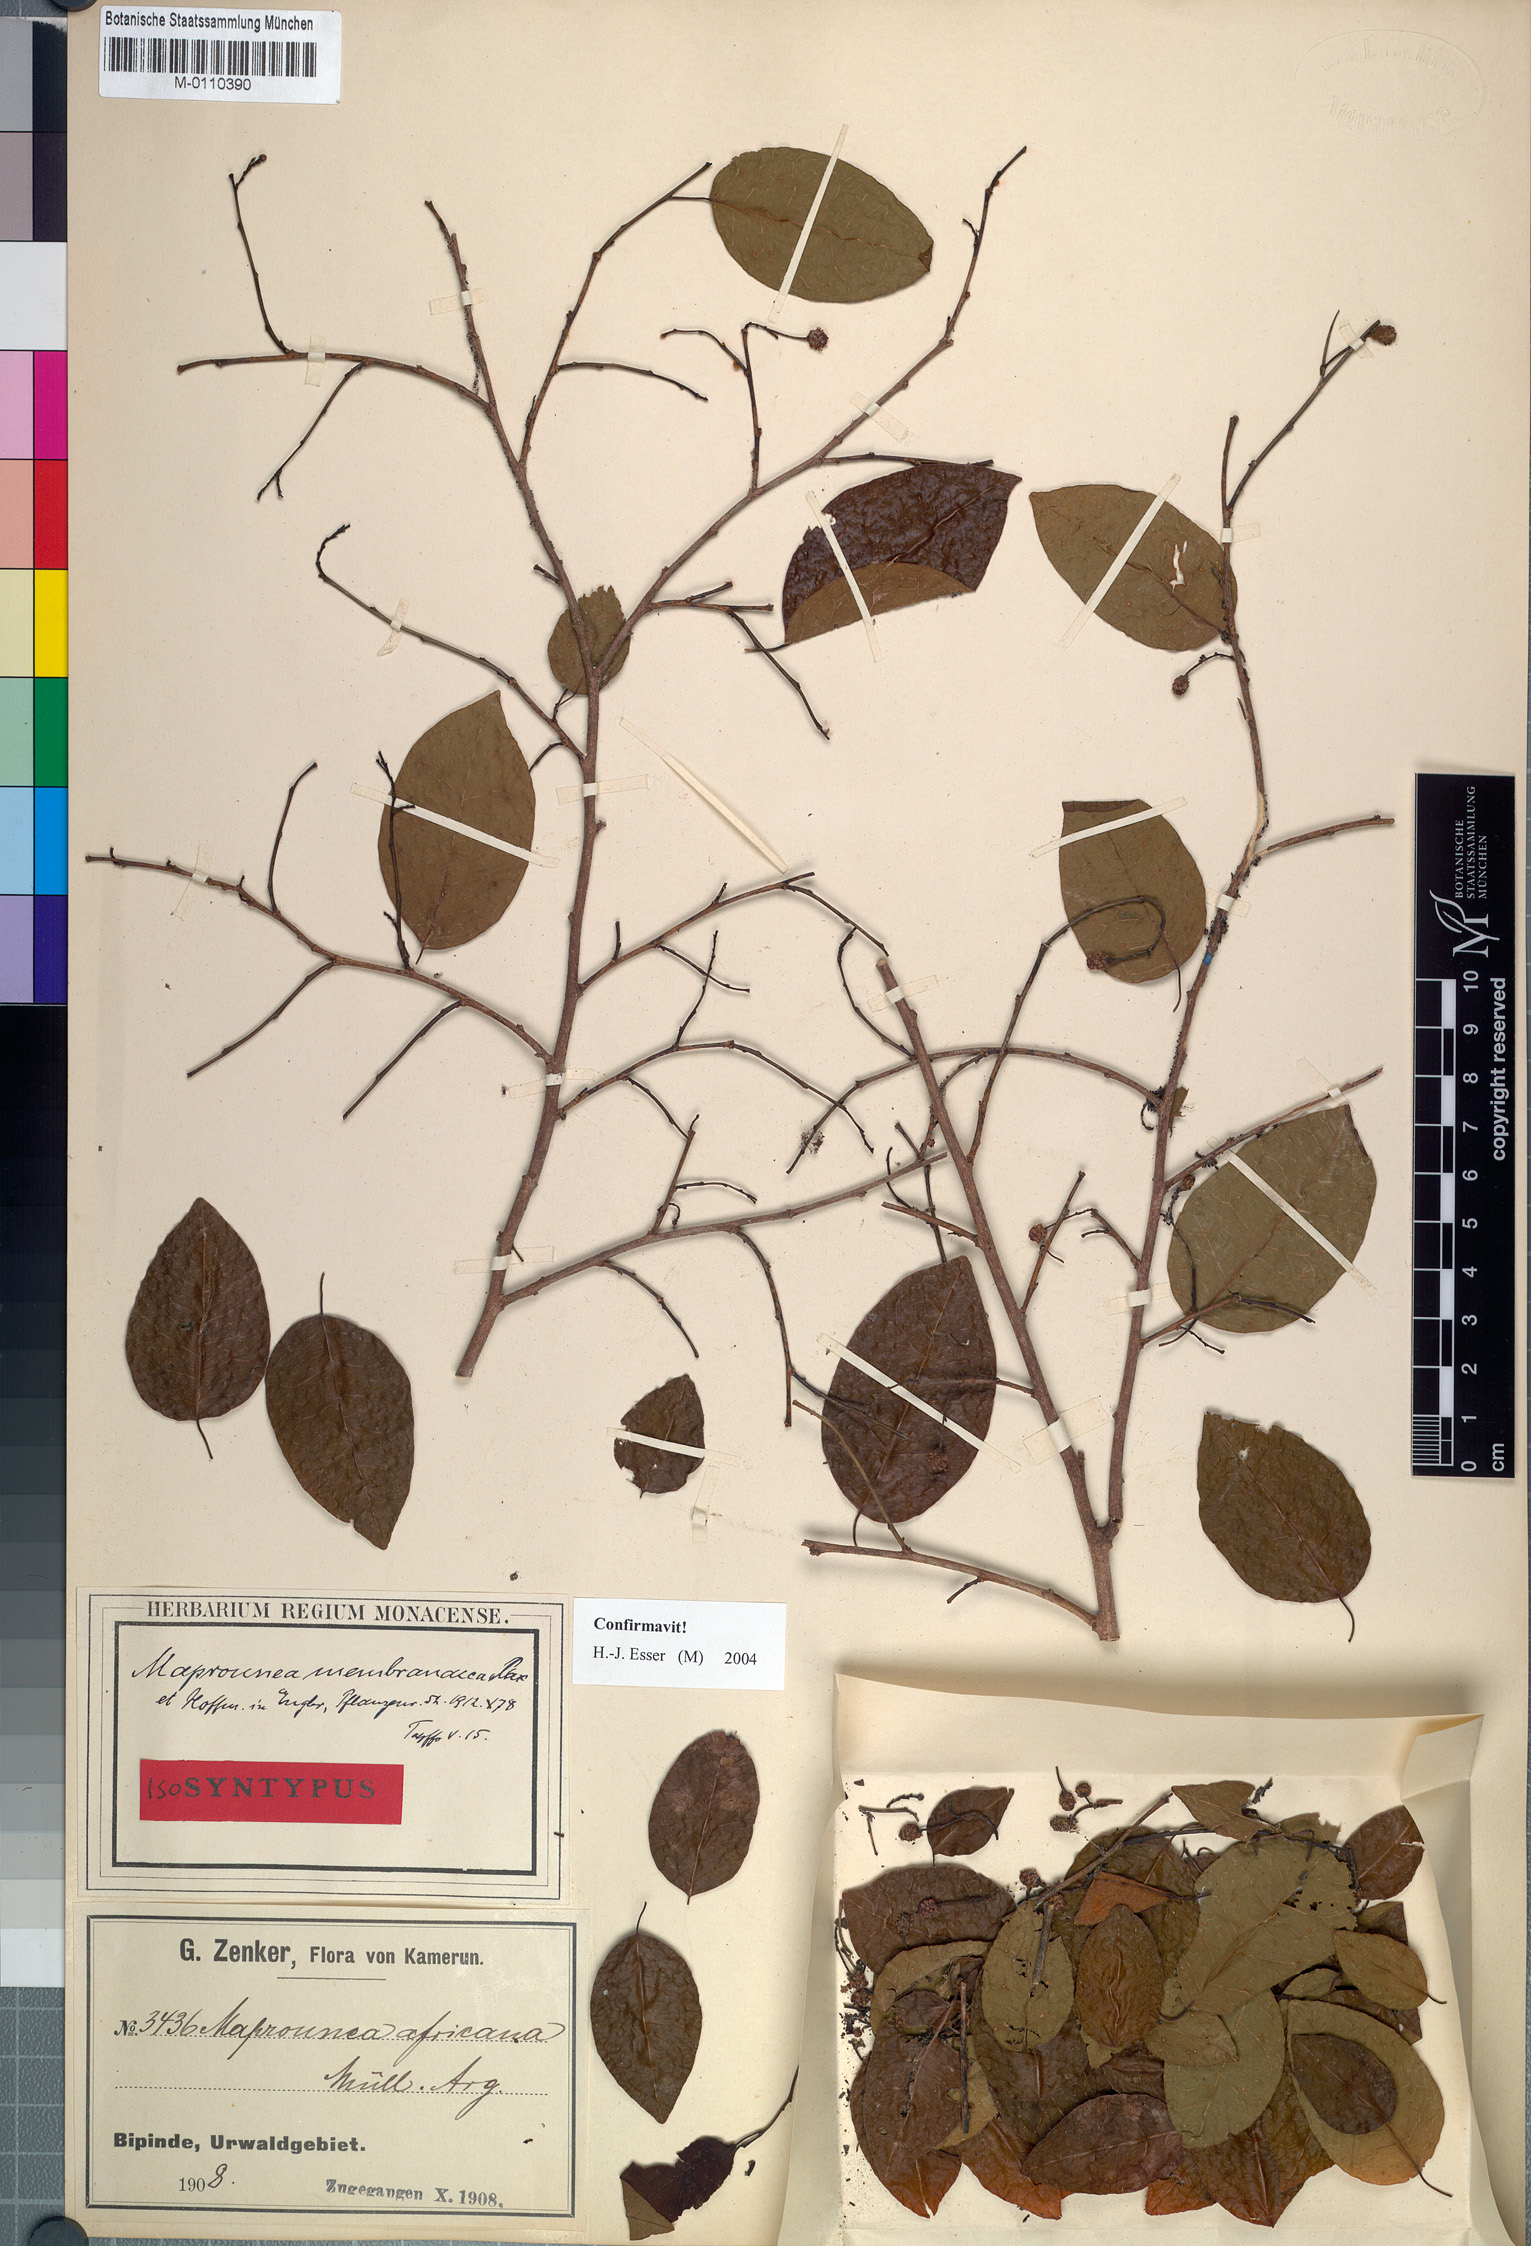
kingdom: Plantae
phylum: Tracheophyta
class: Magnoliopsida
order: Malpighiales
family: Euphorbiaceae
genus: Maprounea
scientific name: Maprounea membranacea
